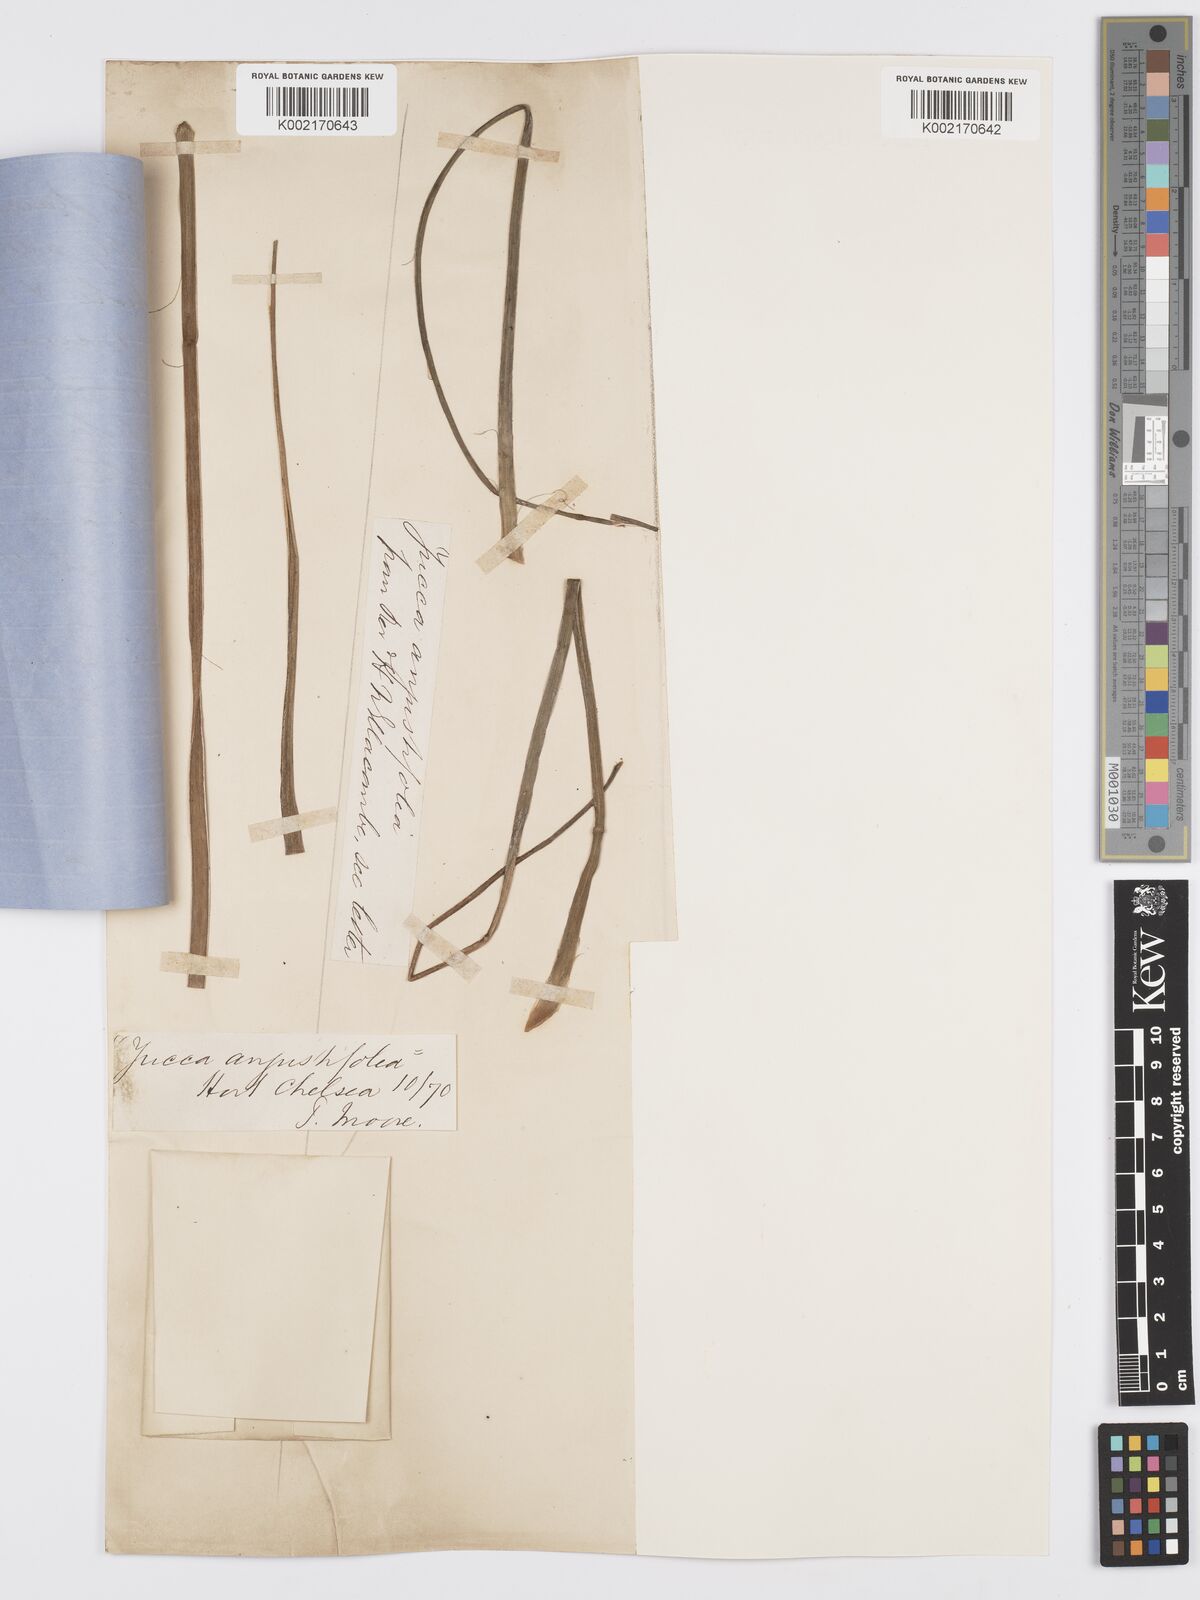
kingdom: Plantae
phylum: Tracheophyta
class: Liliopsida
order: Asparagales
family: Asparagaceae
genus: Yucca
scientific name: Yucca glauca
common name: Great plains yucca
